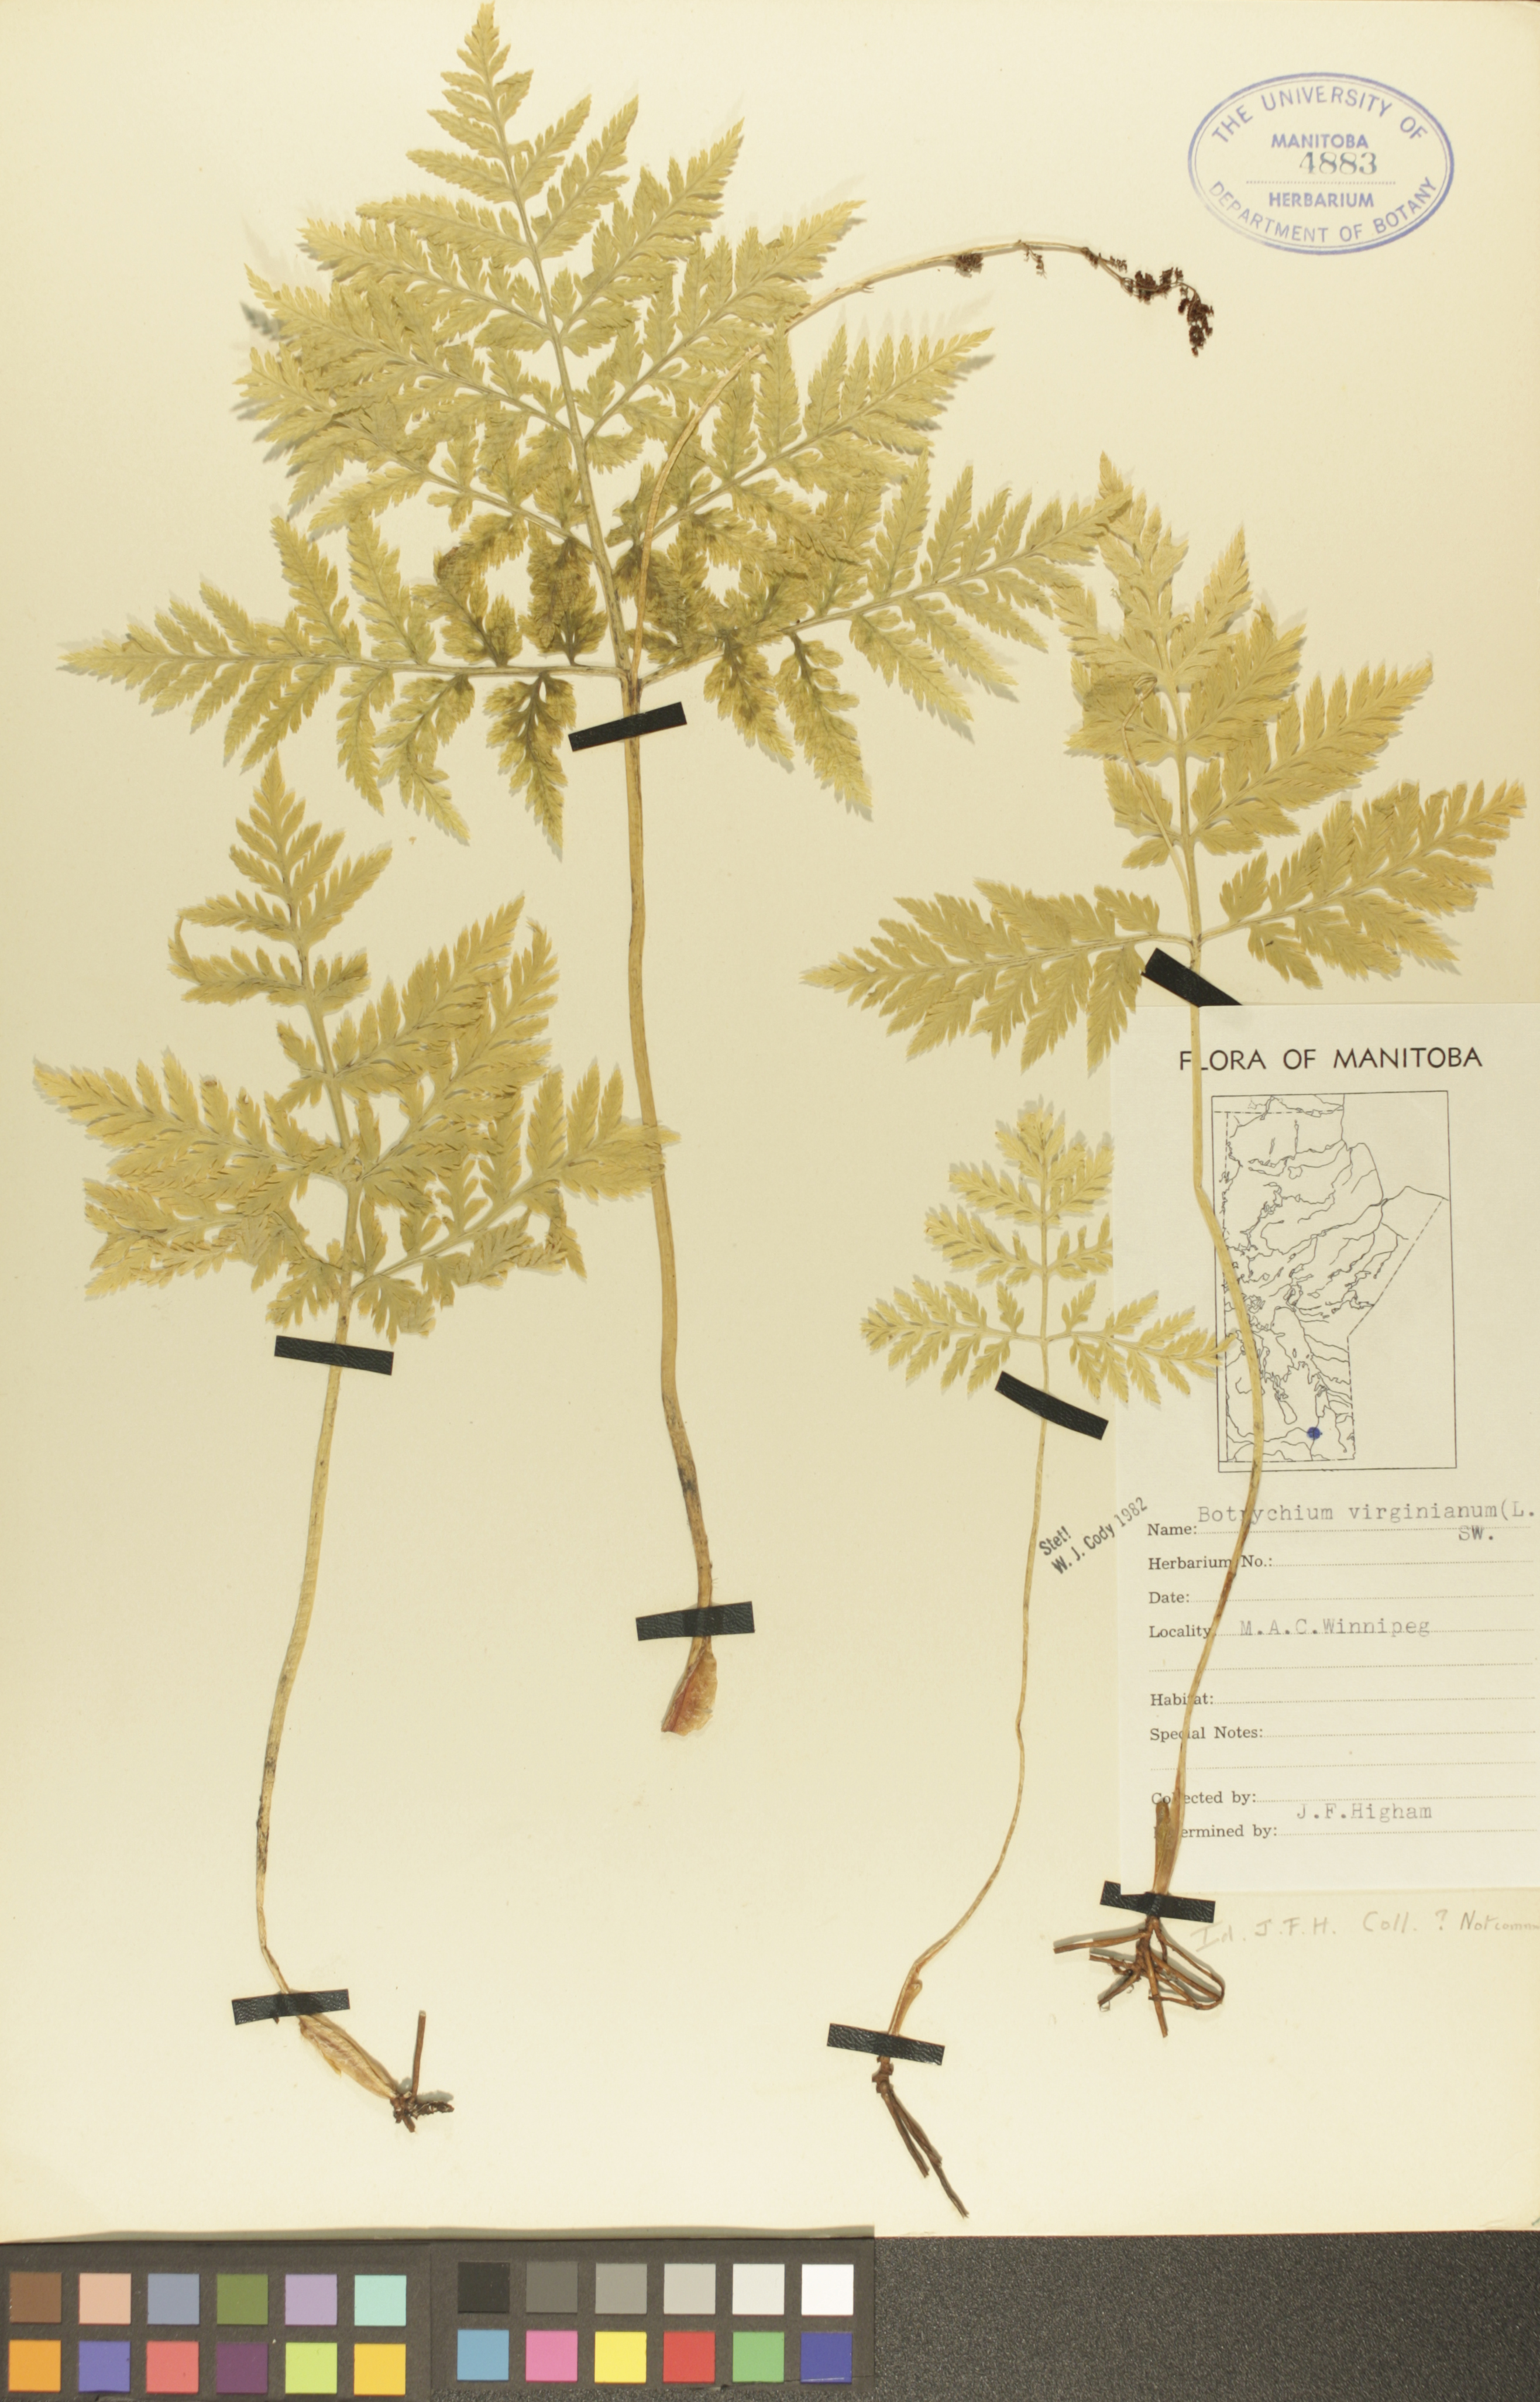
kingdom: Plantae
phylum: Tracheophyta
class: Polypodiopsida
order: Ophioglossales
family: Ophioglossaceae
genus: Botrypus
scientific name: Botrypus virginianus
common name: Common grapefern
